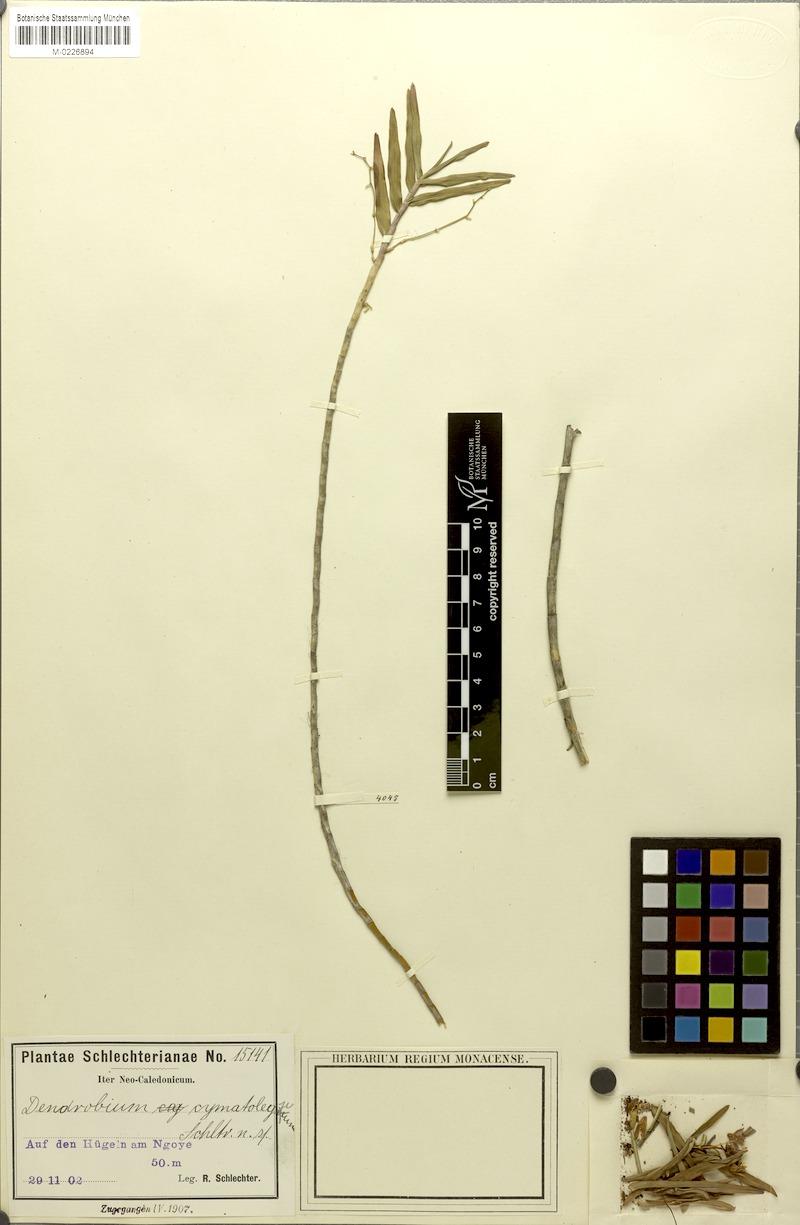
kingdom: Plantae
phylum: Tracheophyta
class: Liliopsida
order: Asparagales
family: Orchidaceae
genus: Dendrobium
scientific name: Dendrobium cymatoleguum
